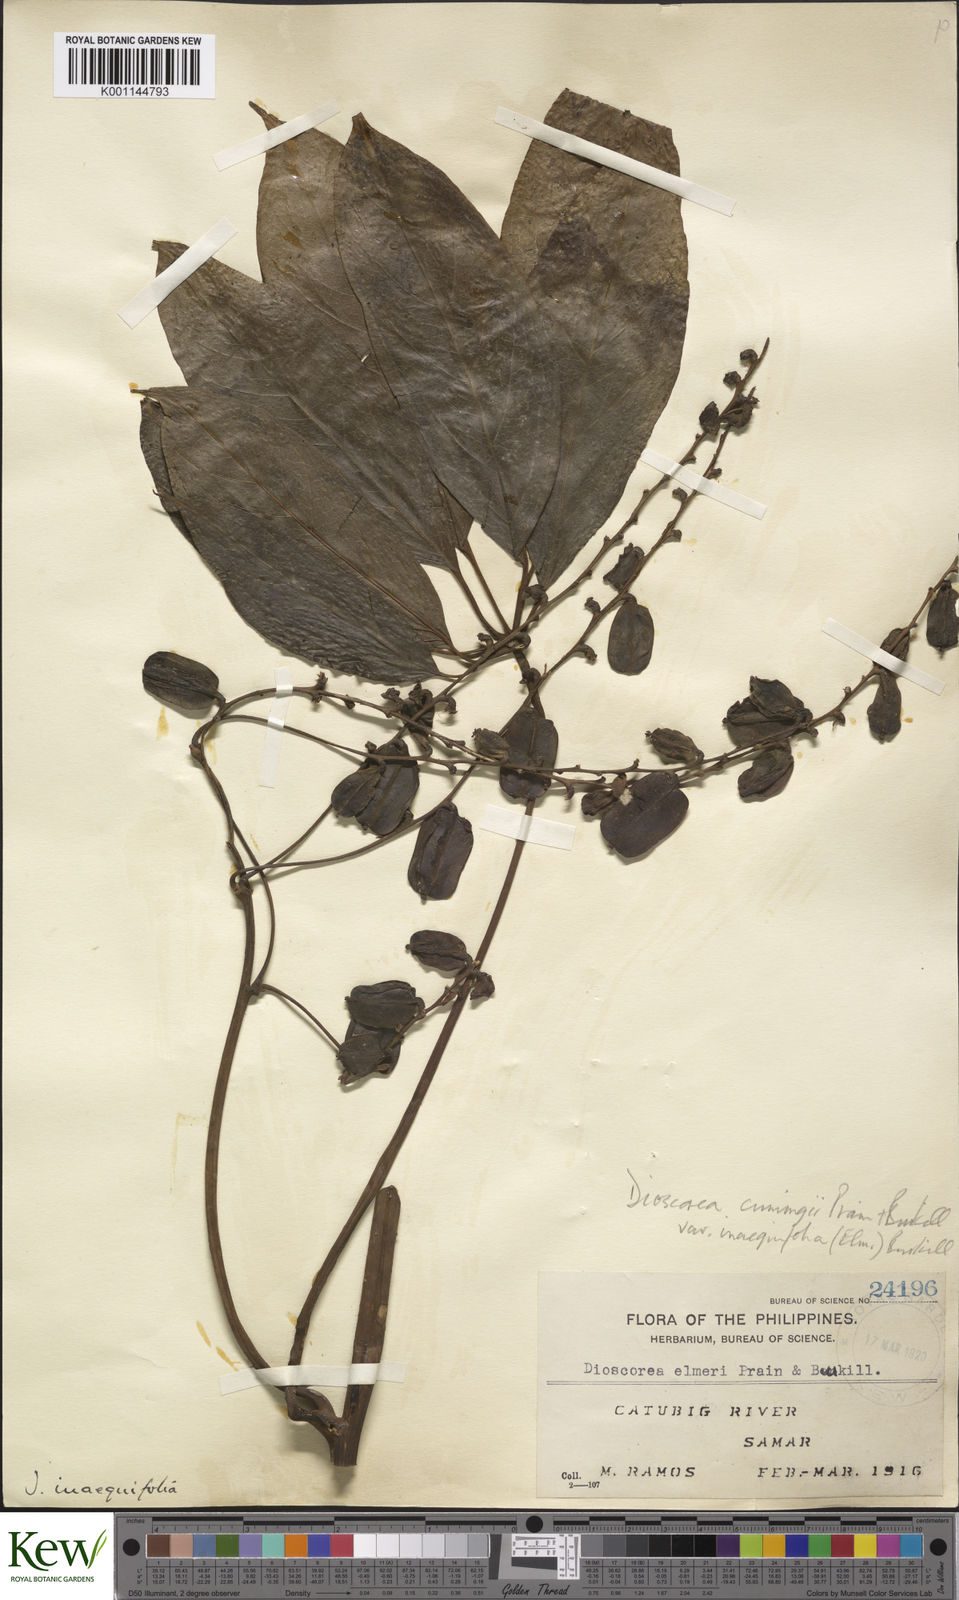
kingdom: Plantae
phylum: Tracheophyta
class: Liliopsida
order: Dioscoreales
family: Dioscoreaceae
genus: Dioscorea
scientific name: Dioscorea cumingii
